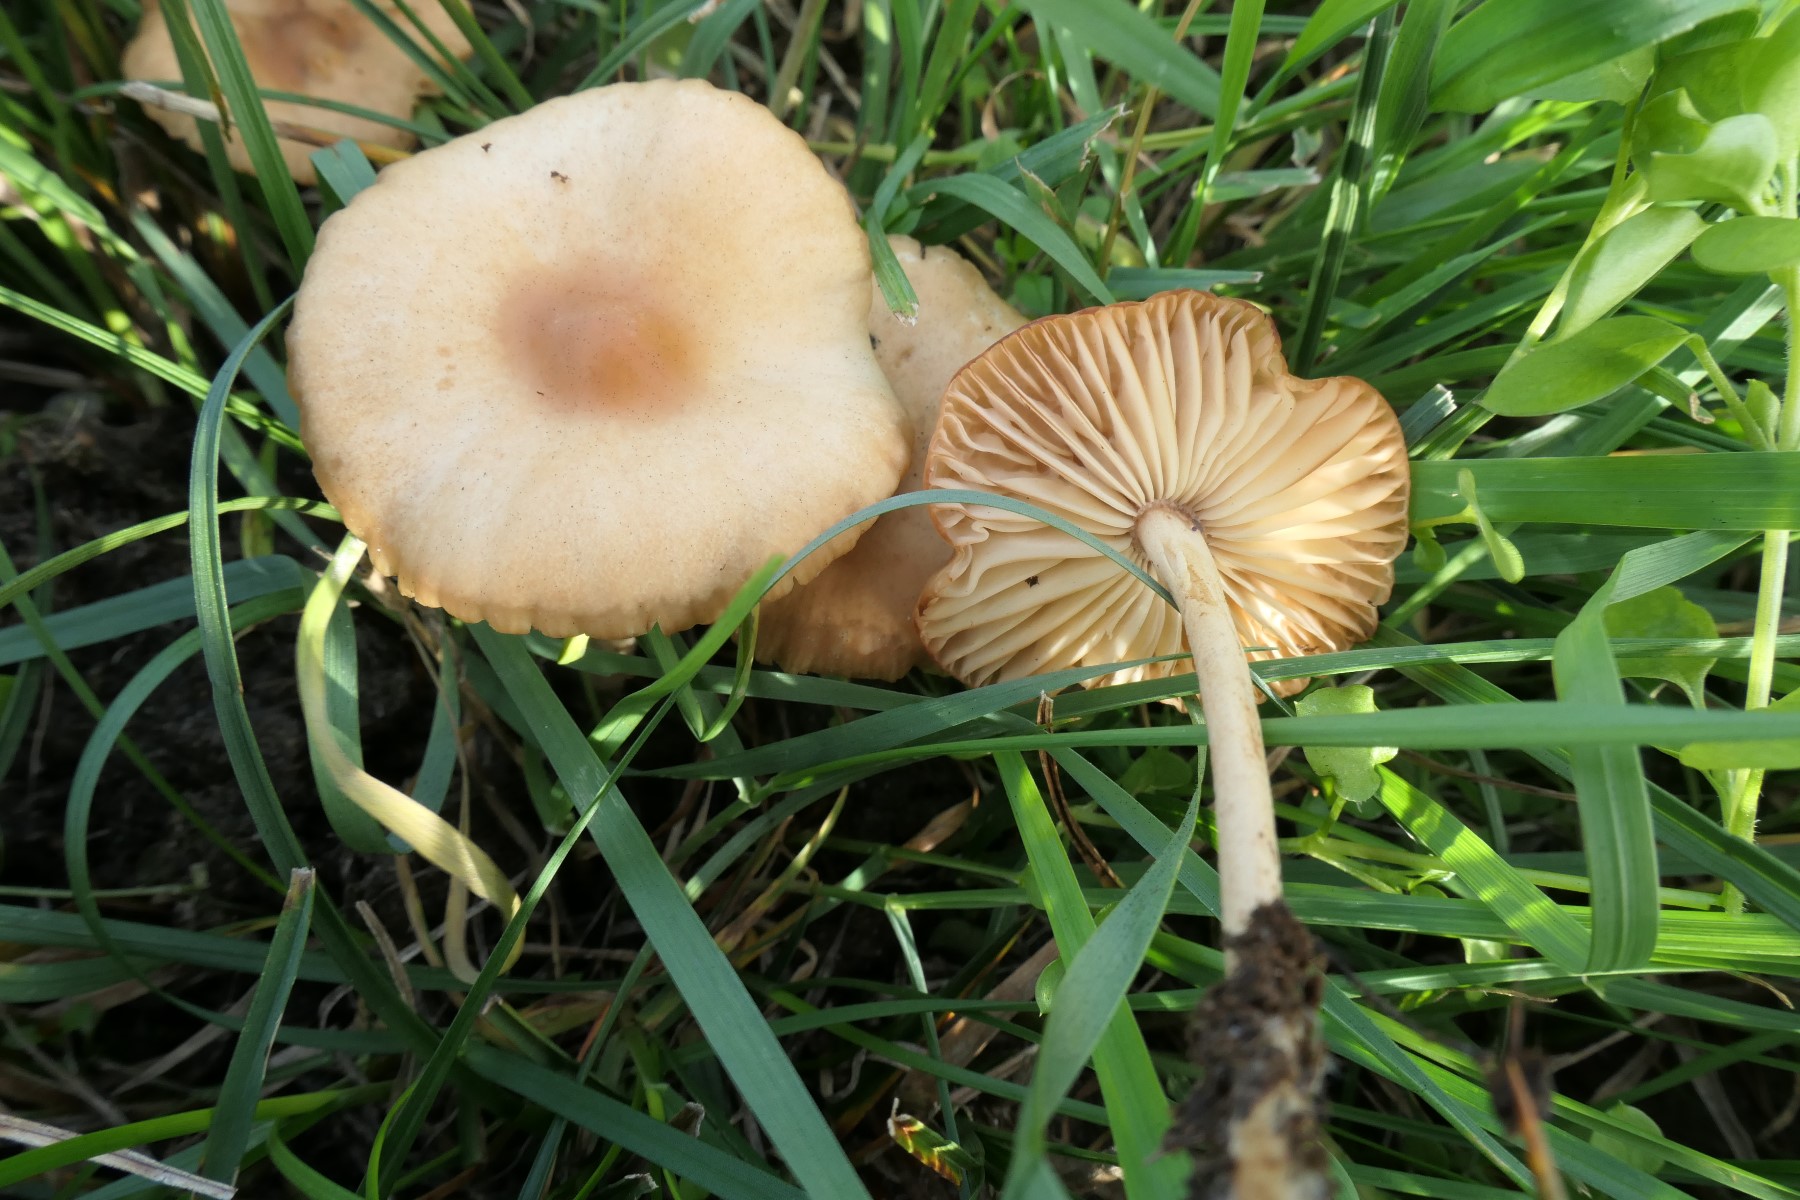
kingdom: Fungi
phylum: Basidiomycota
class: Agaricomycetes
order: Agaricales
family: Marasmiaceae
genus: Marasmius
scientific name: Marasmius oreades
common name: elledans-bruskhat
